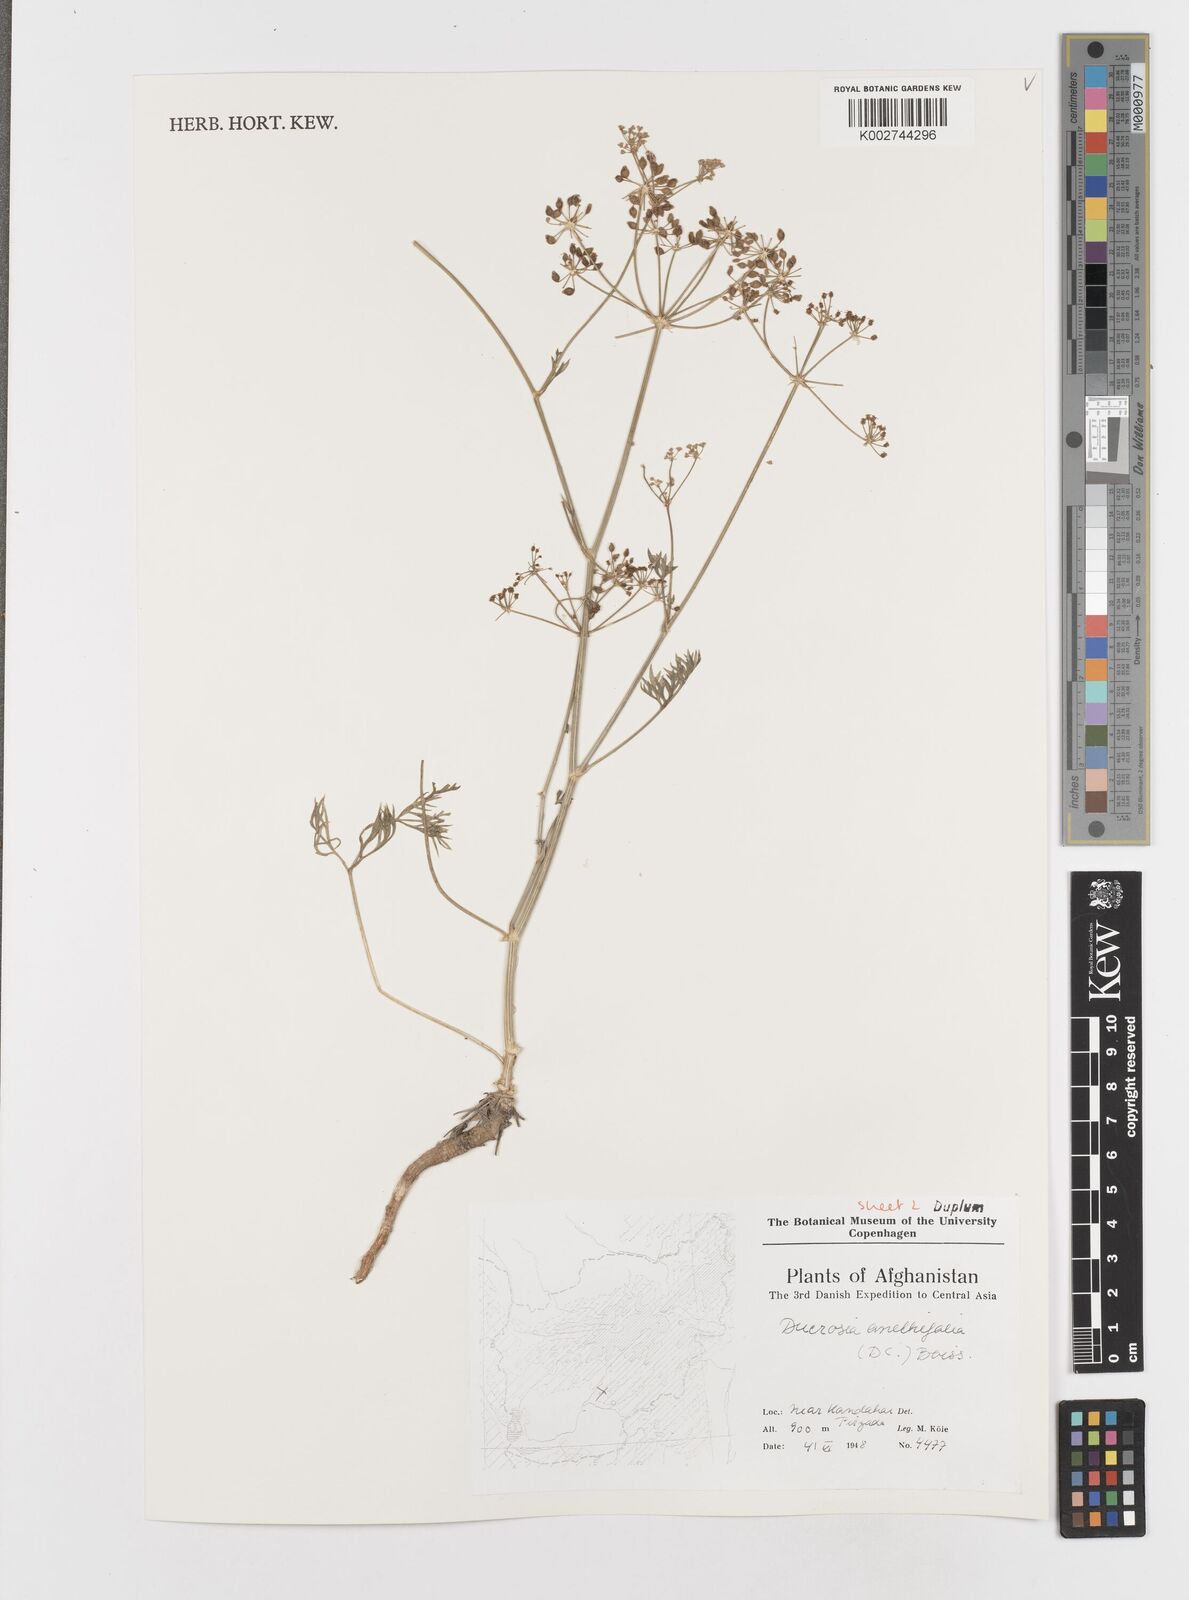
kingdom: Plantae
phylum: Tracheophyta
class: Magnoliopsida
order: Apiales
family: Apiaceae
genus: Ducrosia
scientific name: Ducrosia
